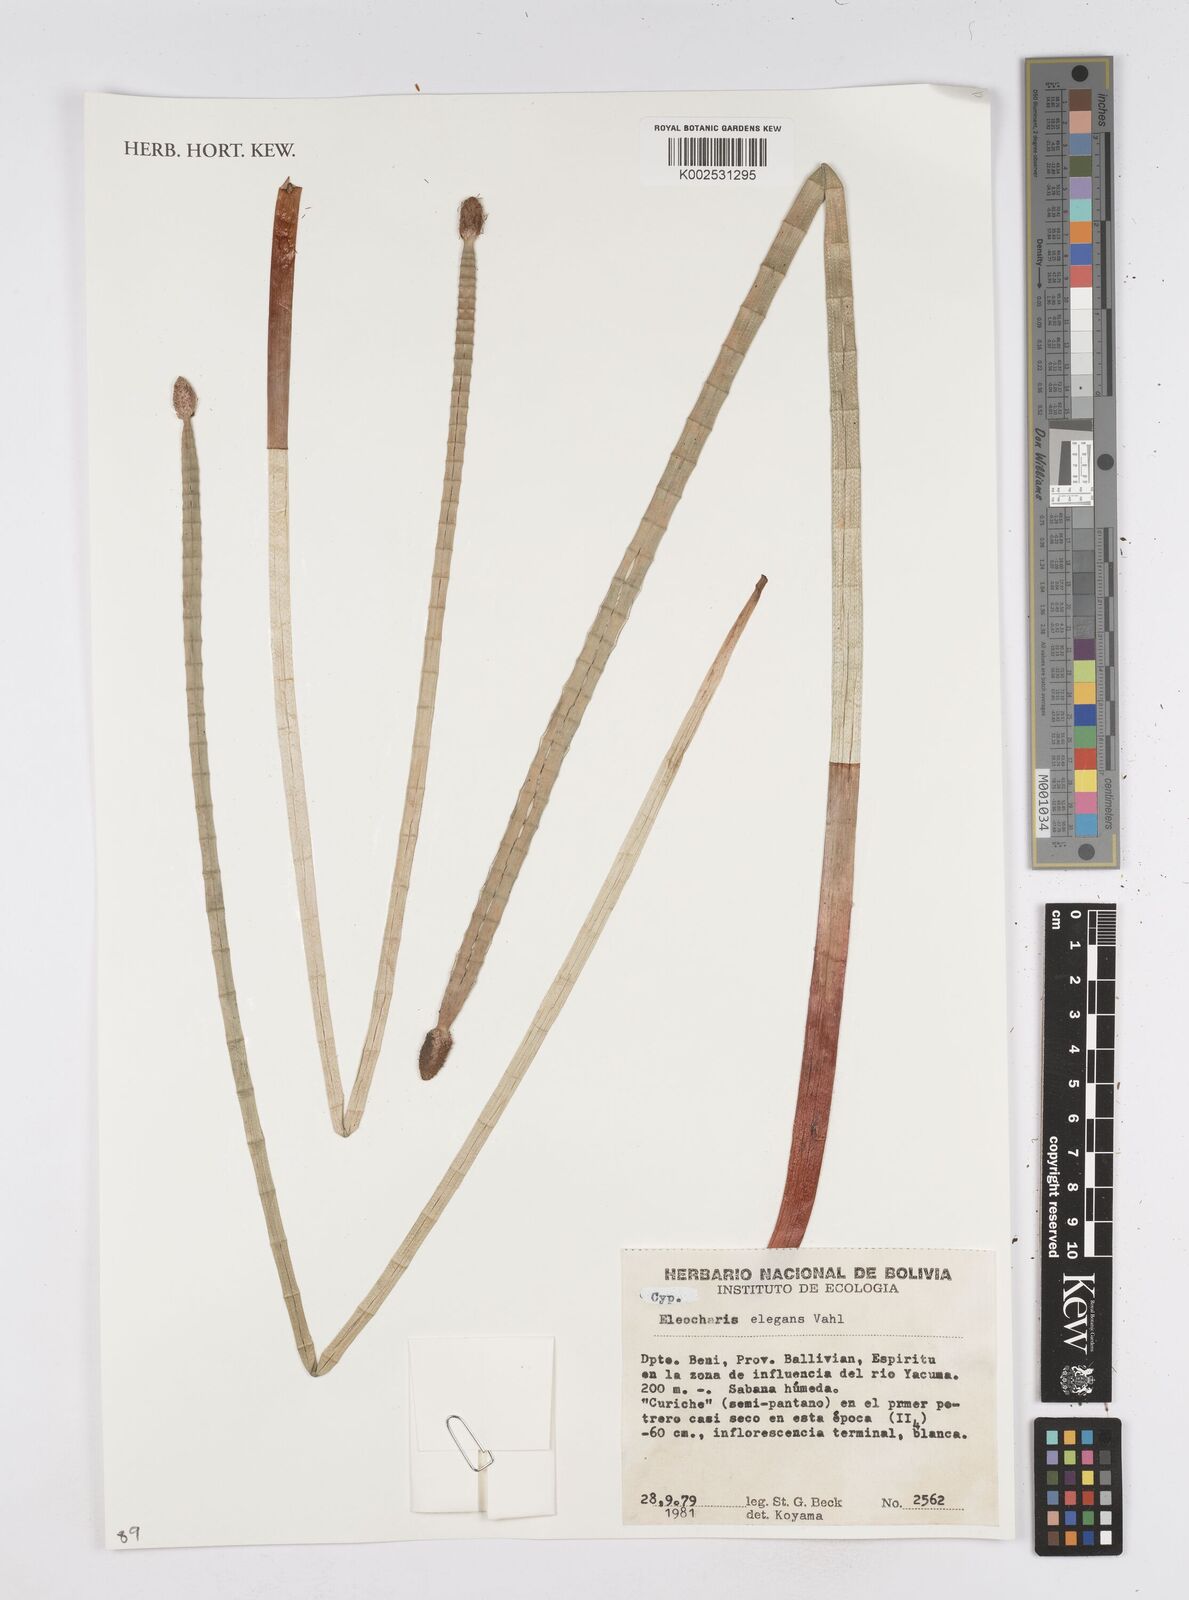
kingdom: Plantae
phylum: Tracheophyta
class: Liliopsida
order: Poales
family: Cyperaceae
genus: Eleocharis
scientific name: Eleocharis elegans
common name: Elegant spike-rush
